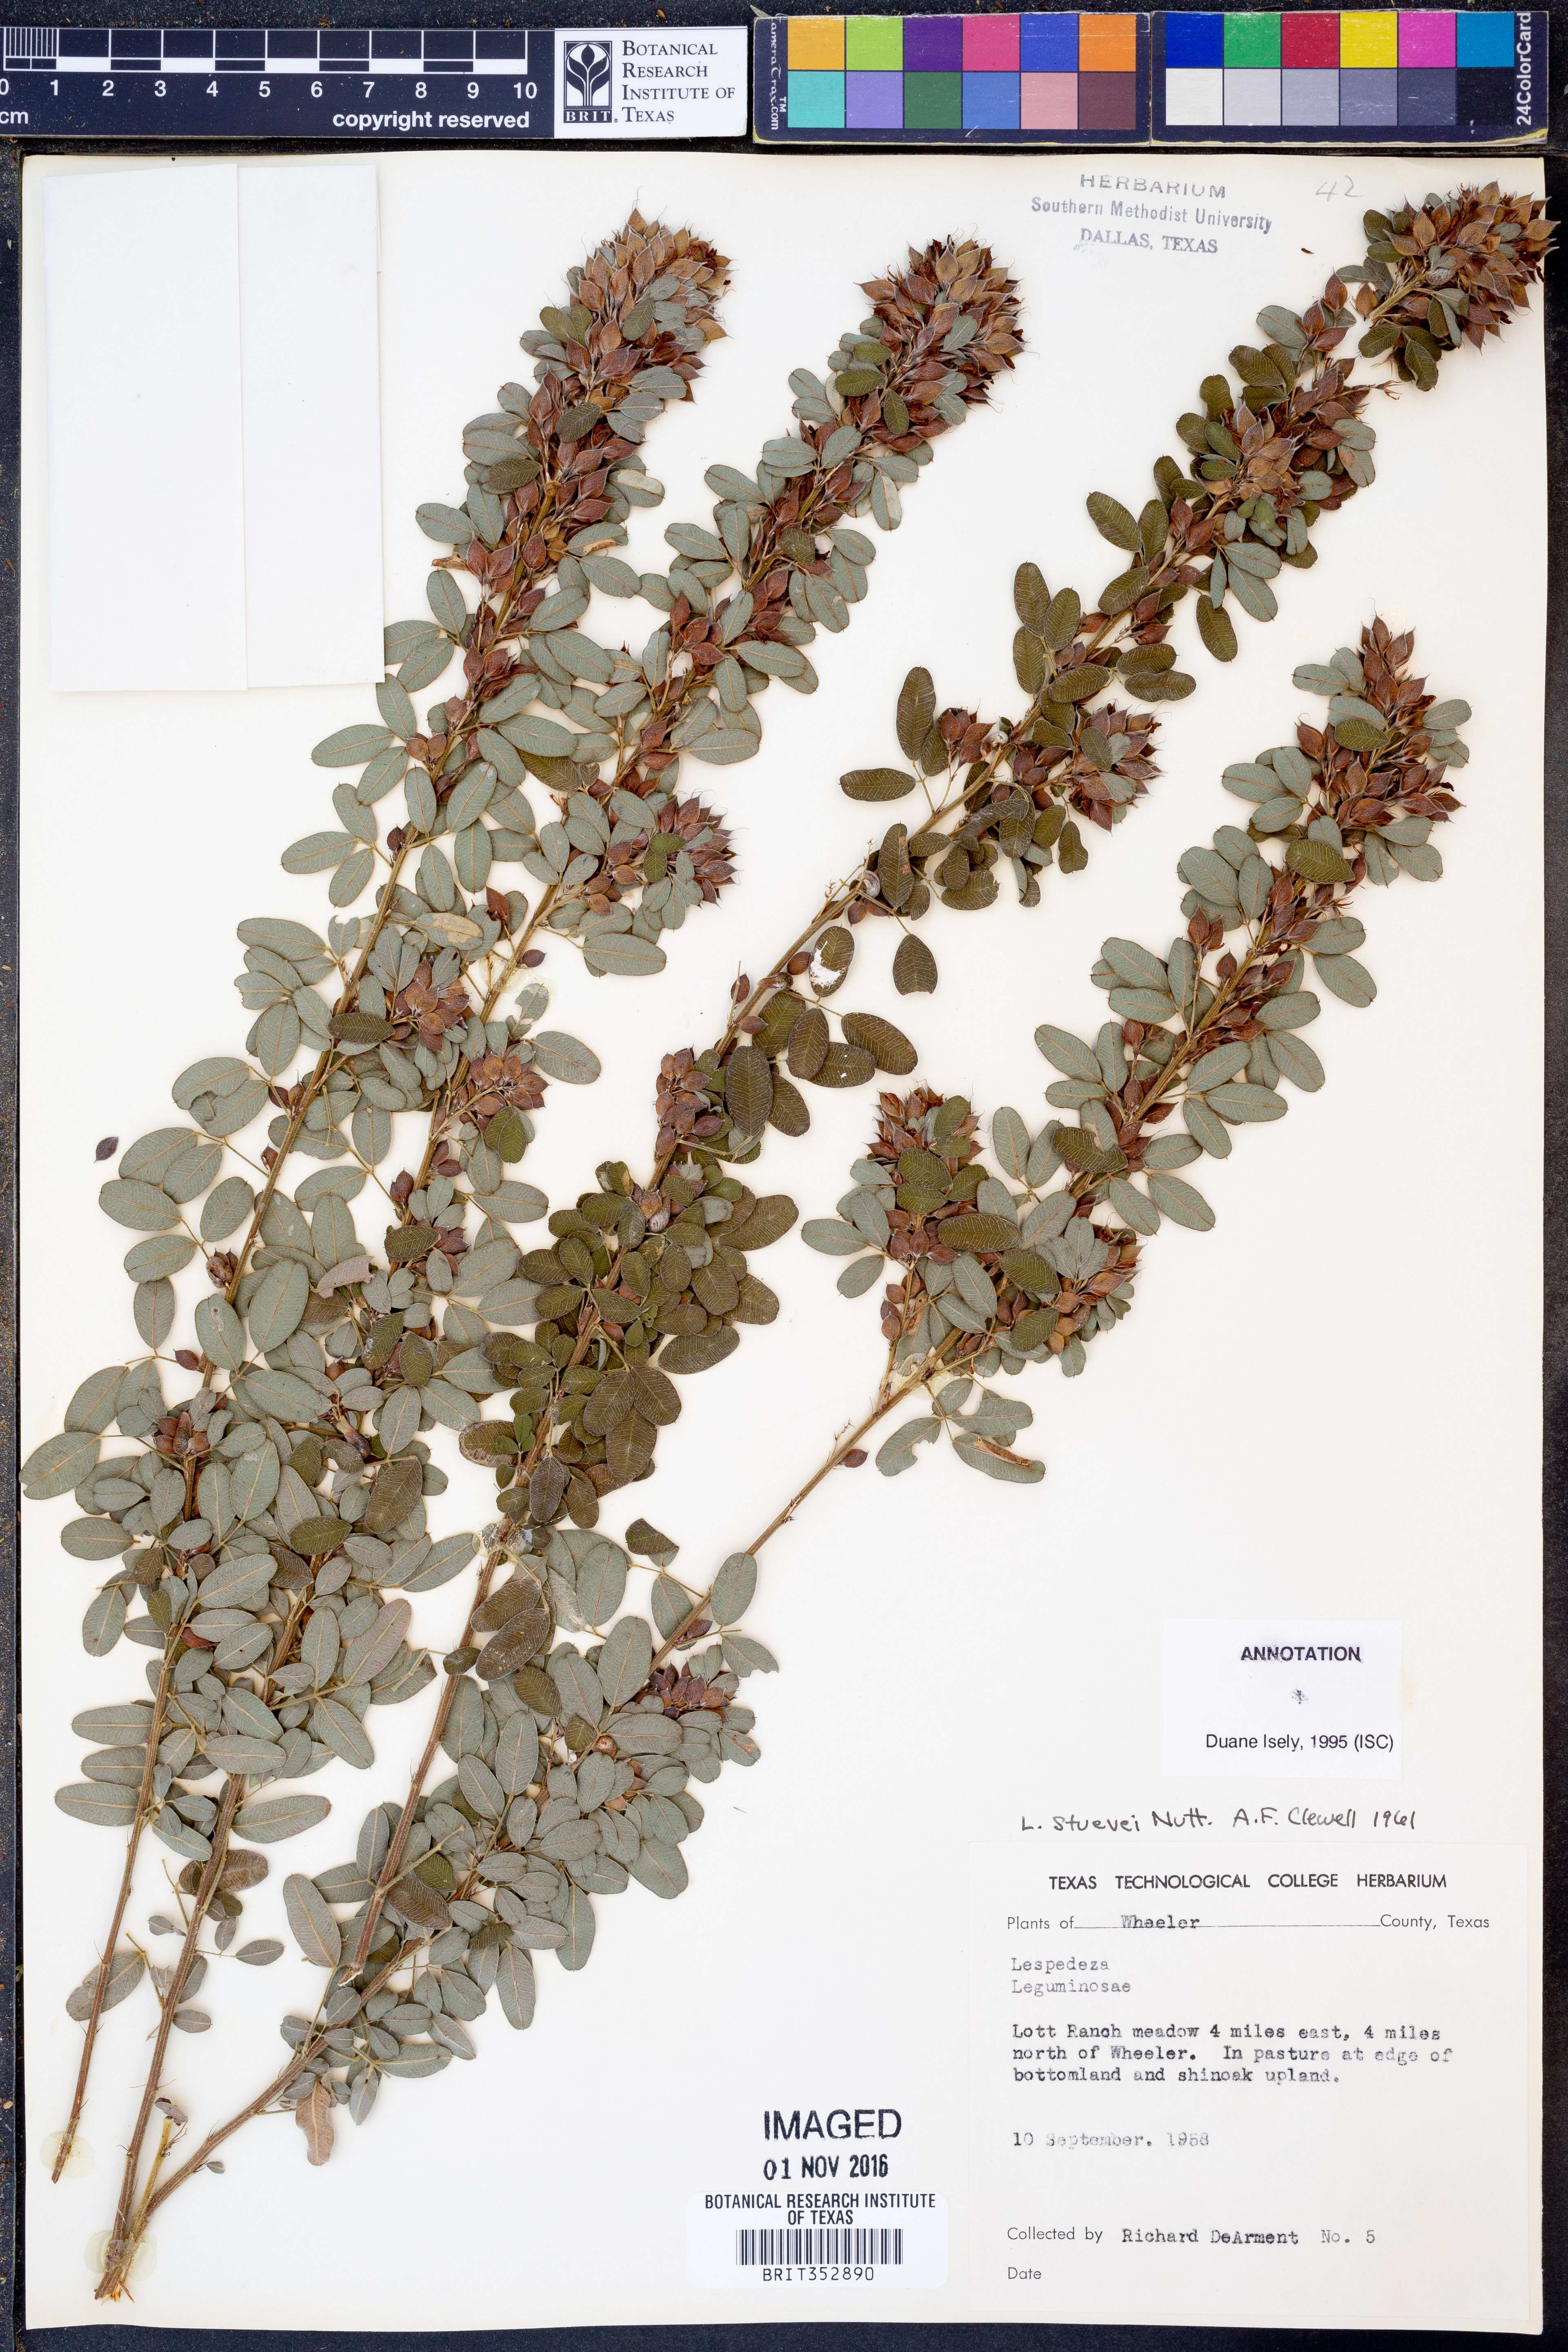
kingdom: Plantae
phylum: Tracheophyta
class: Magnoliopsida
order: Fabales
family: Fabaceae
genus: Lespedeza
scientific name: Lespedeza stuevei
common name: Tall bush-clover
